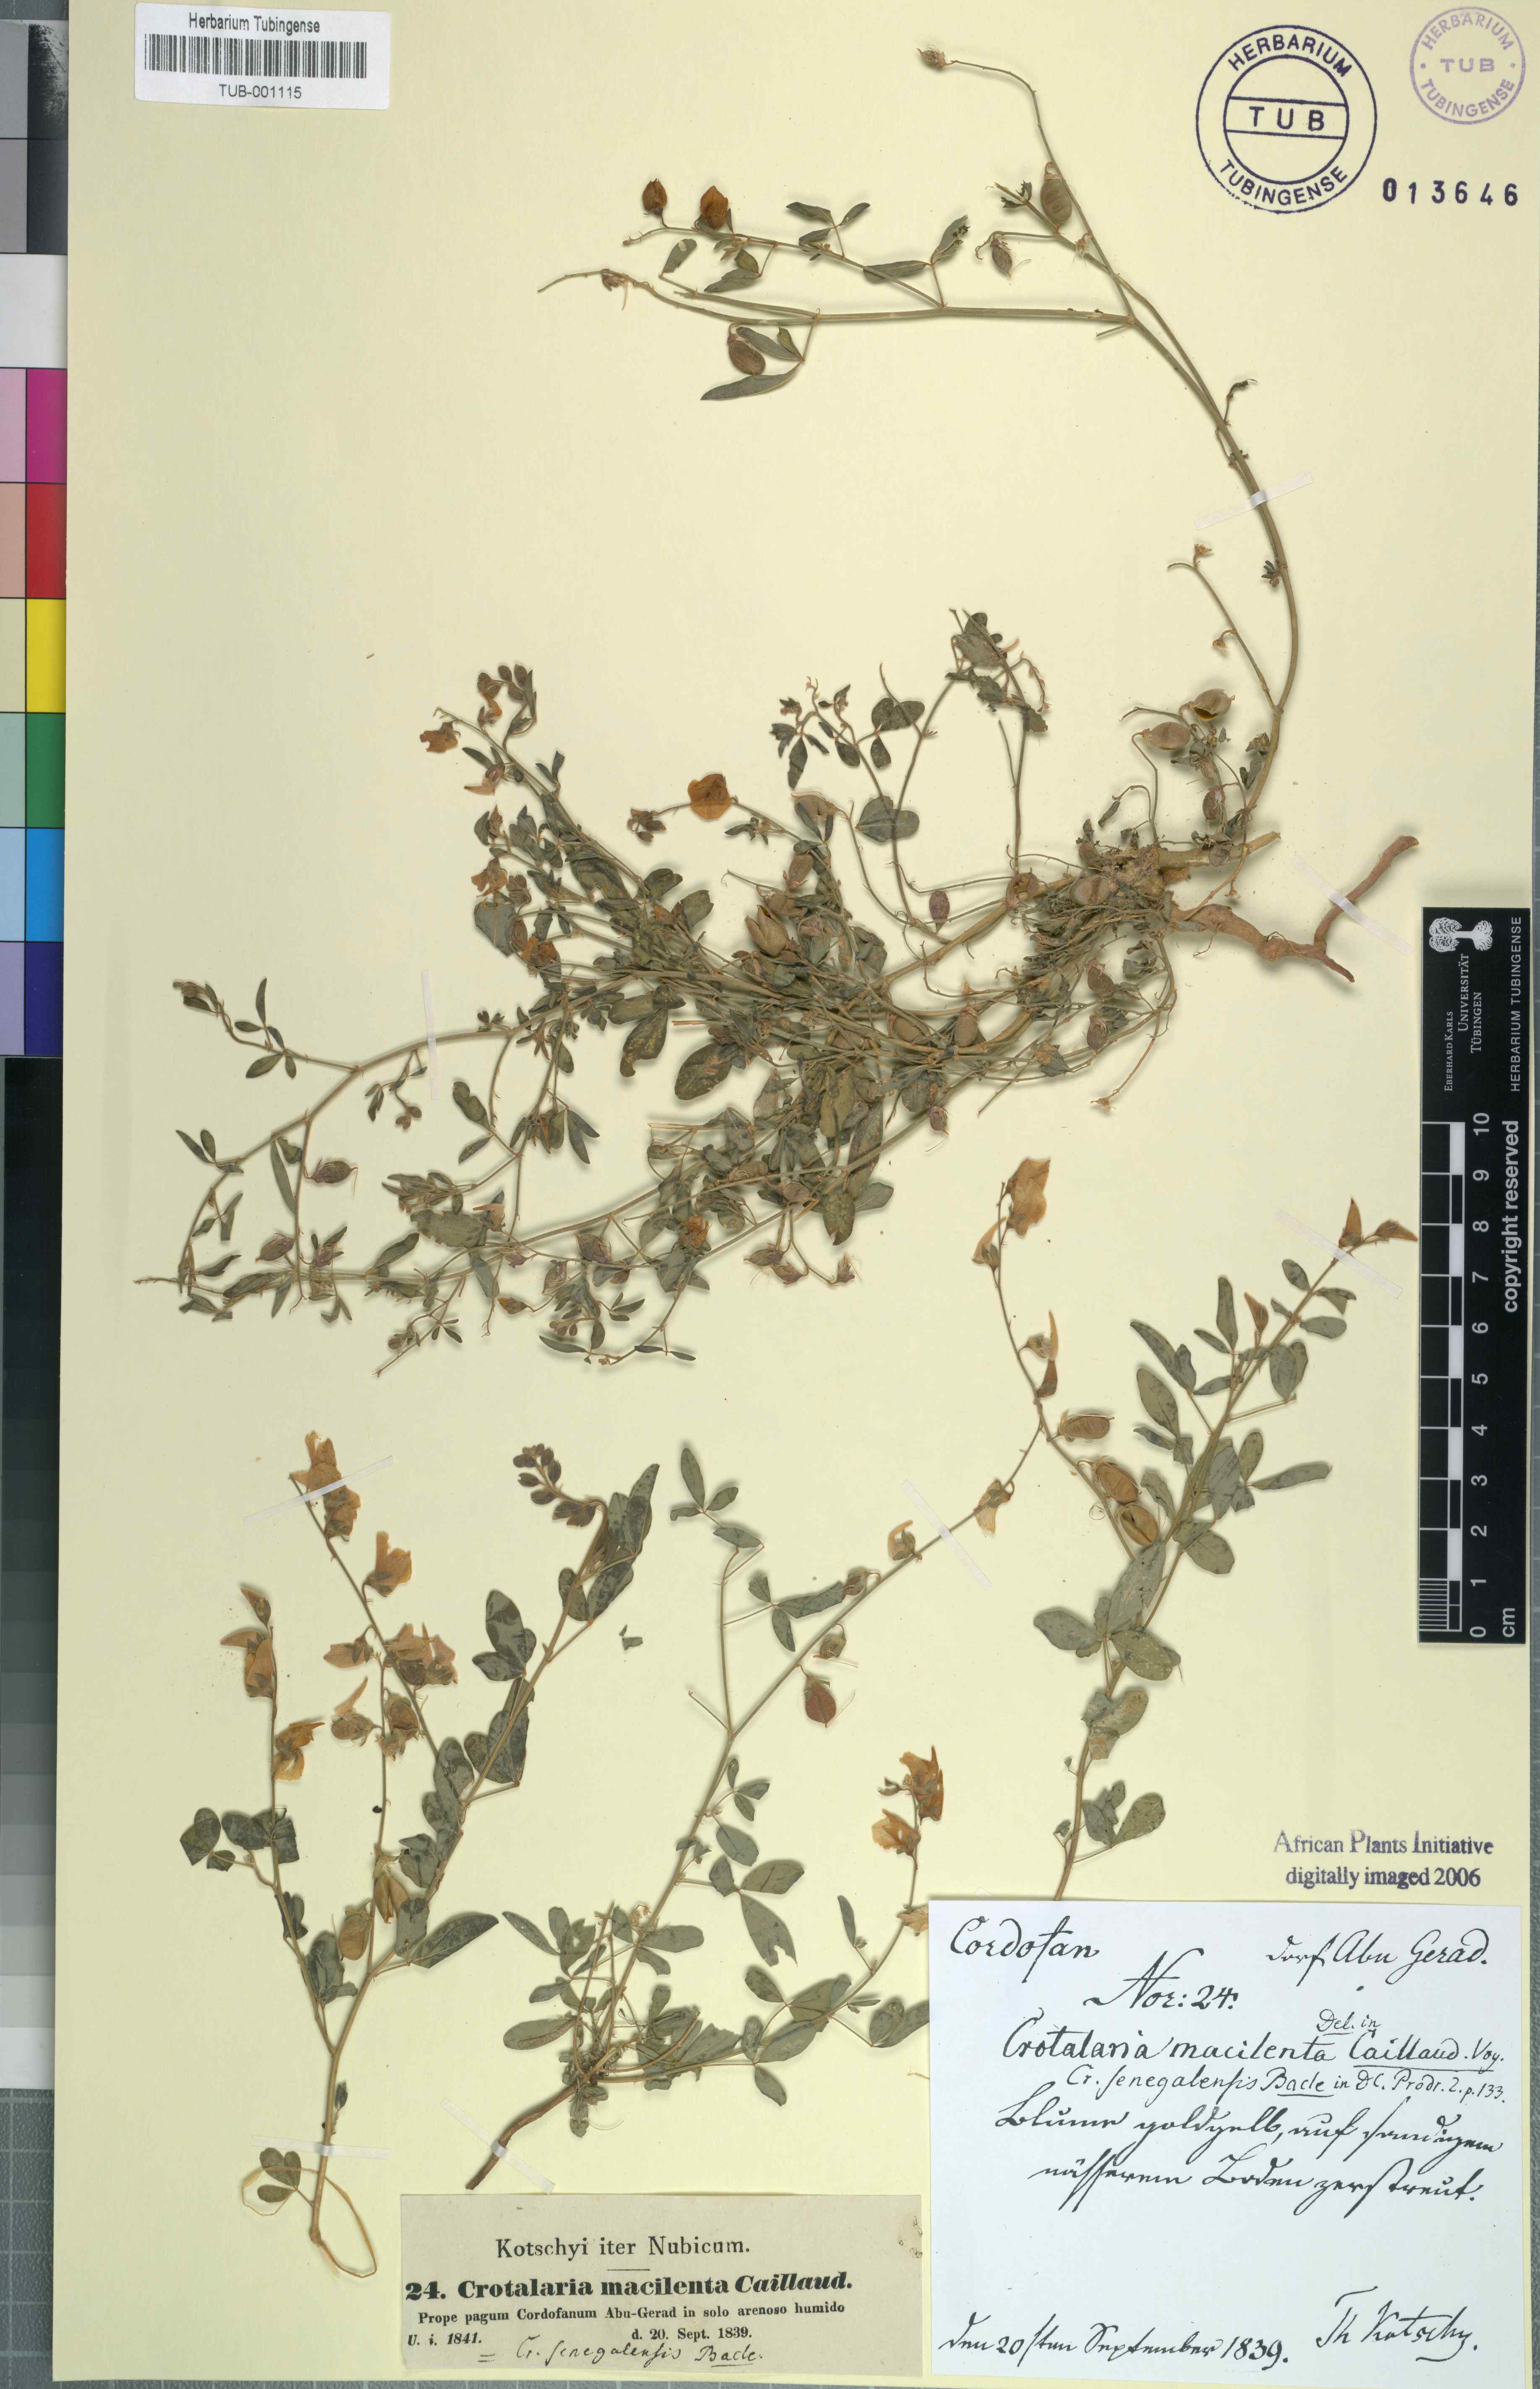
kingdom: Plantae
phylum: Tracheophyta
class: Magnoliopsida
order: Fabales
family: Fabaceae
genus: Crotalaria
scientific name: Crotalaria senegalensis
